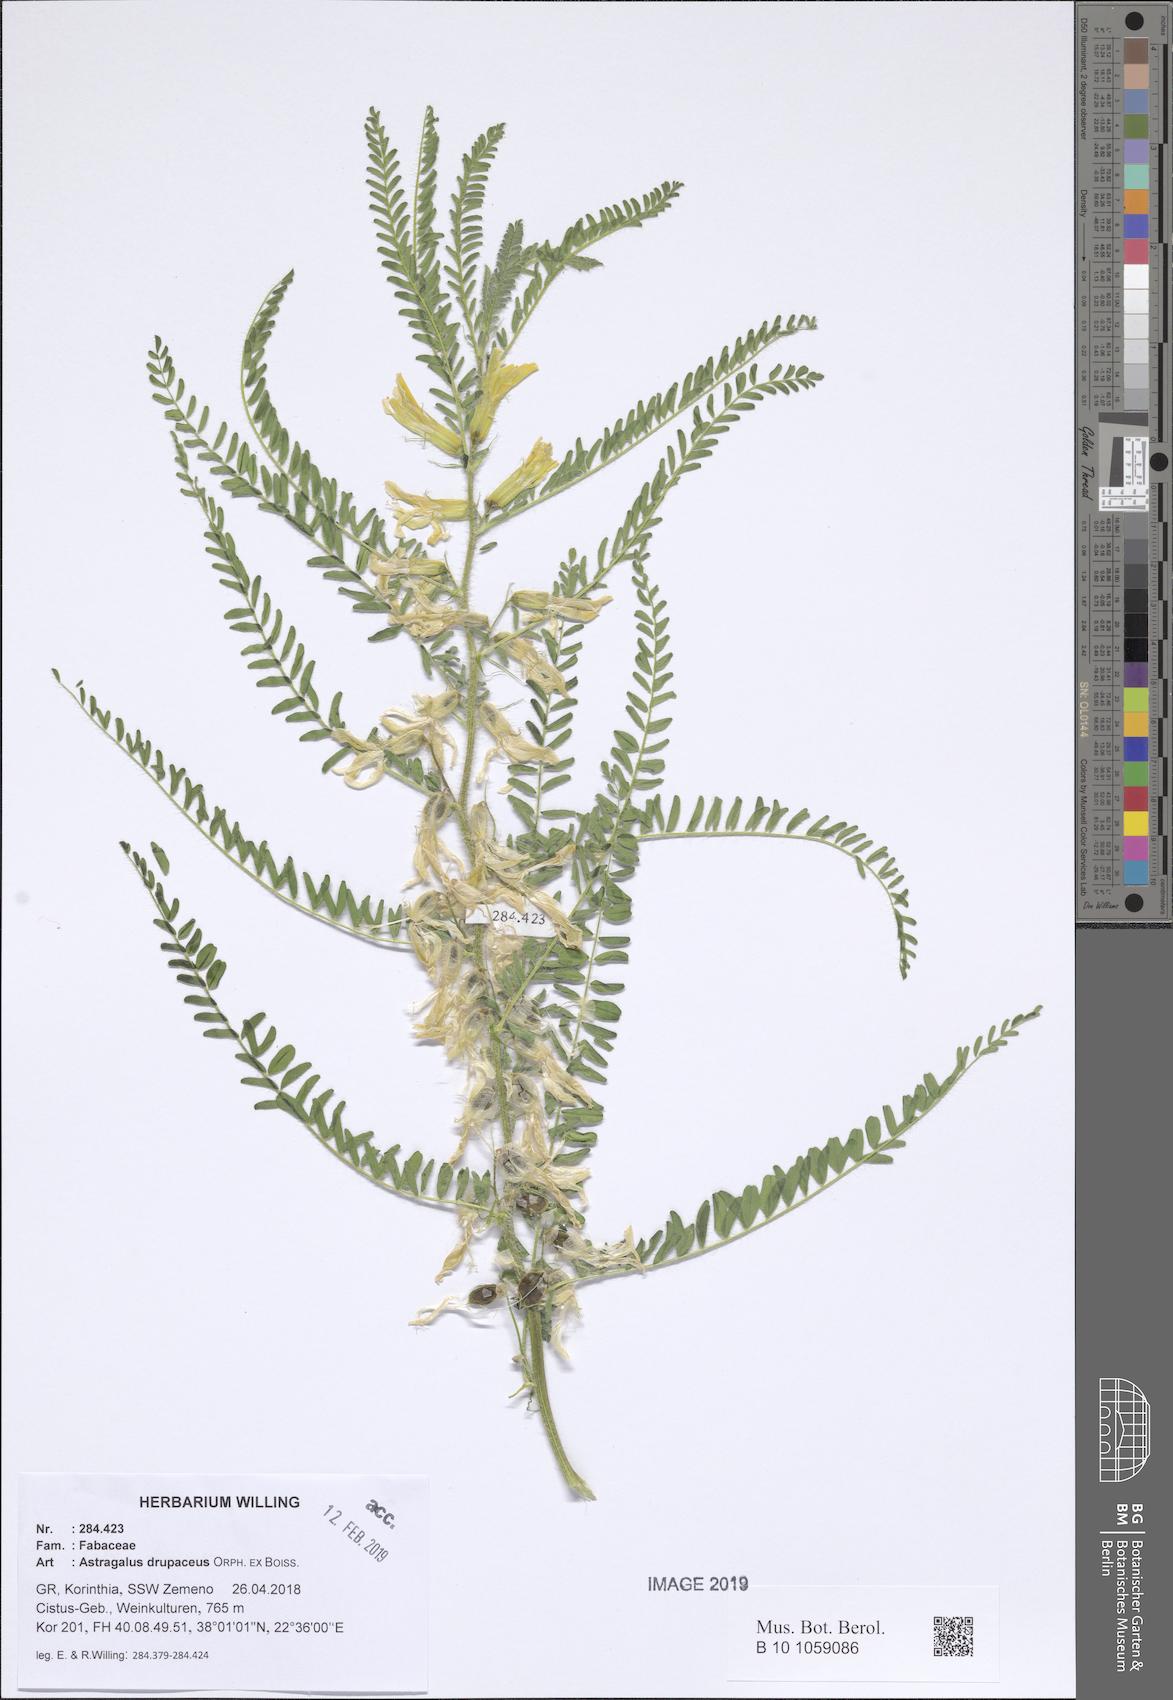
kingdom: Plantae
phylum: Tracheophyta
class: Magnoliopsida
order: Fabales
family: Fabaceae
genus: Astragalus
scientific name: Astragalus drupaceus
